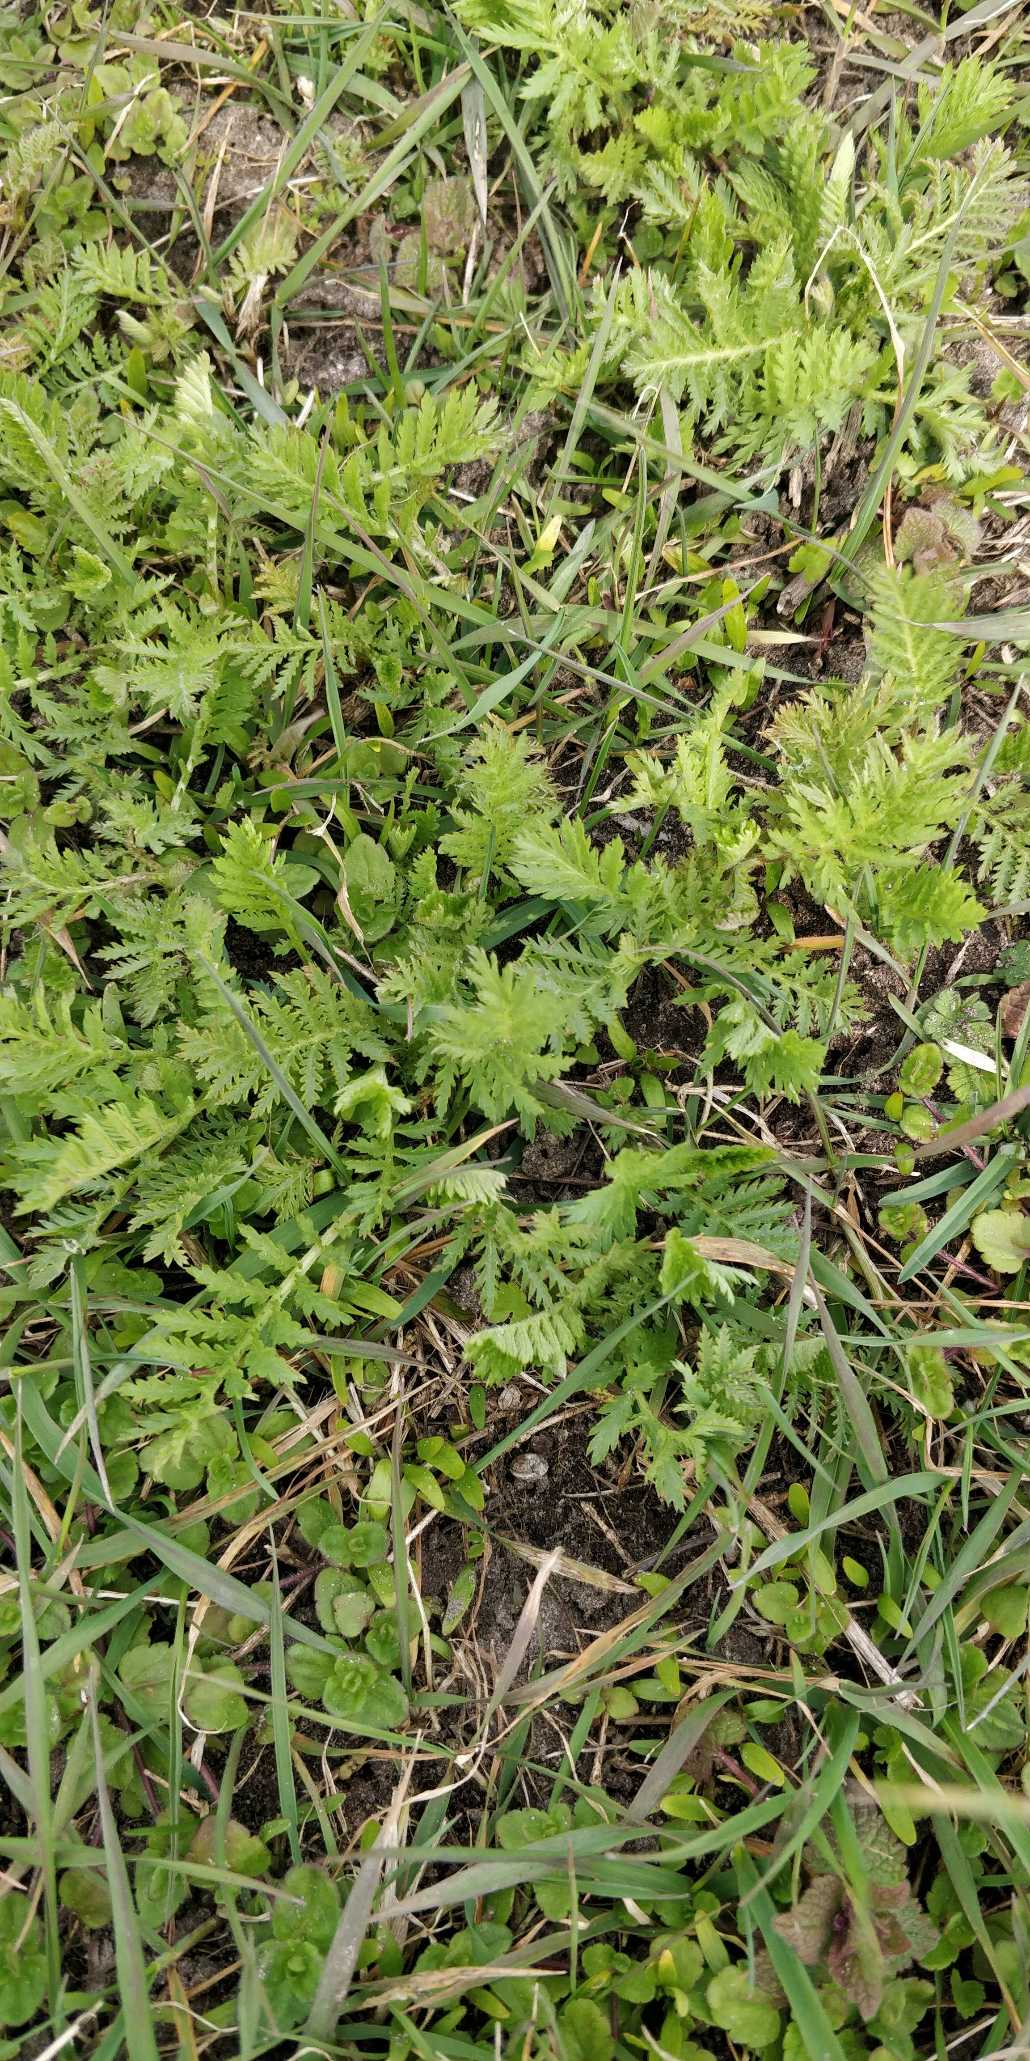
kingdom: Plantae
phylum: Tracheophyta
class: Magnoliopsida
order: Asterales
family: Asteraceae
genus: Tanacetum
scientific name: Tanacetum vulgare
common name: Rejnfan
